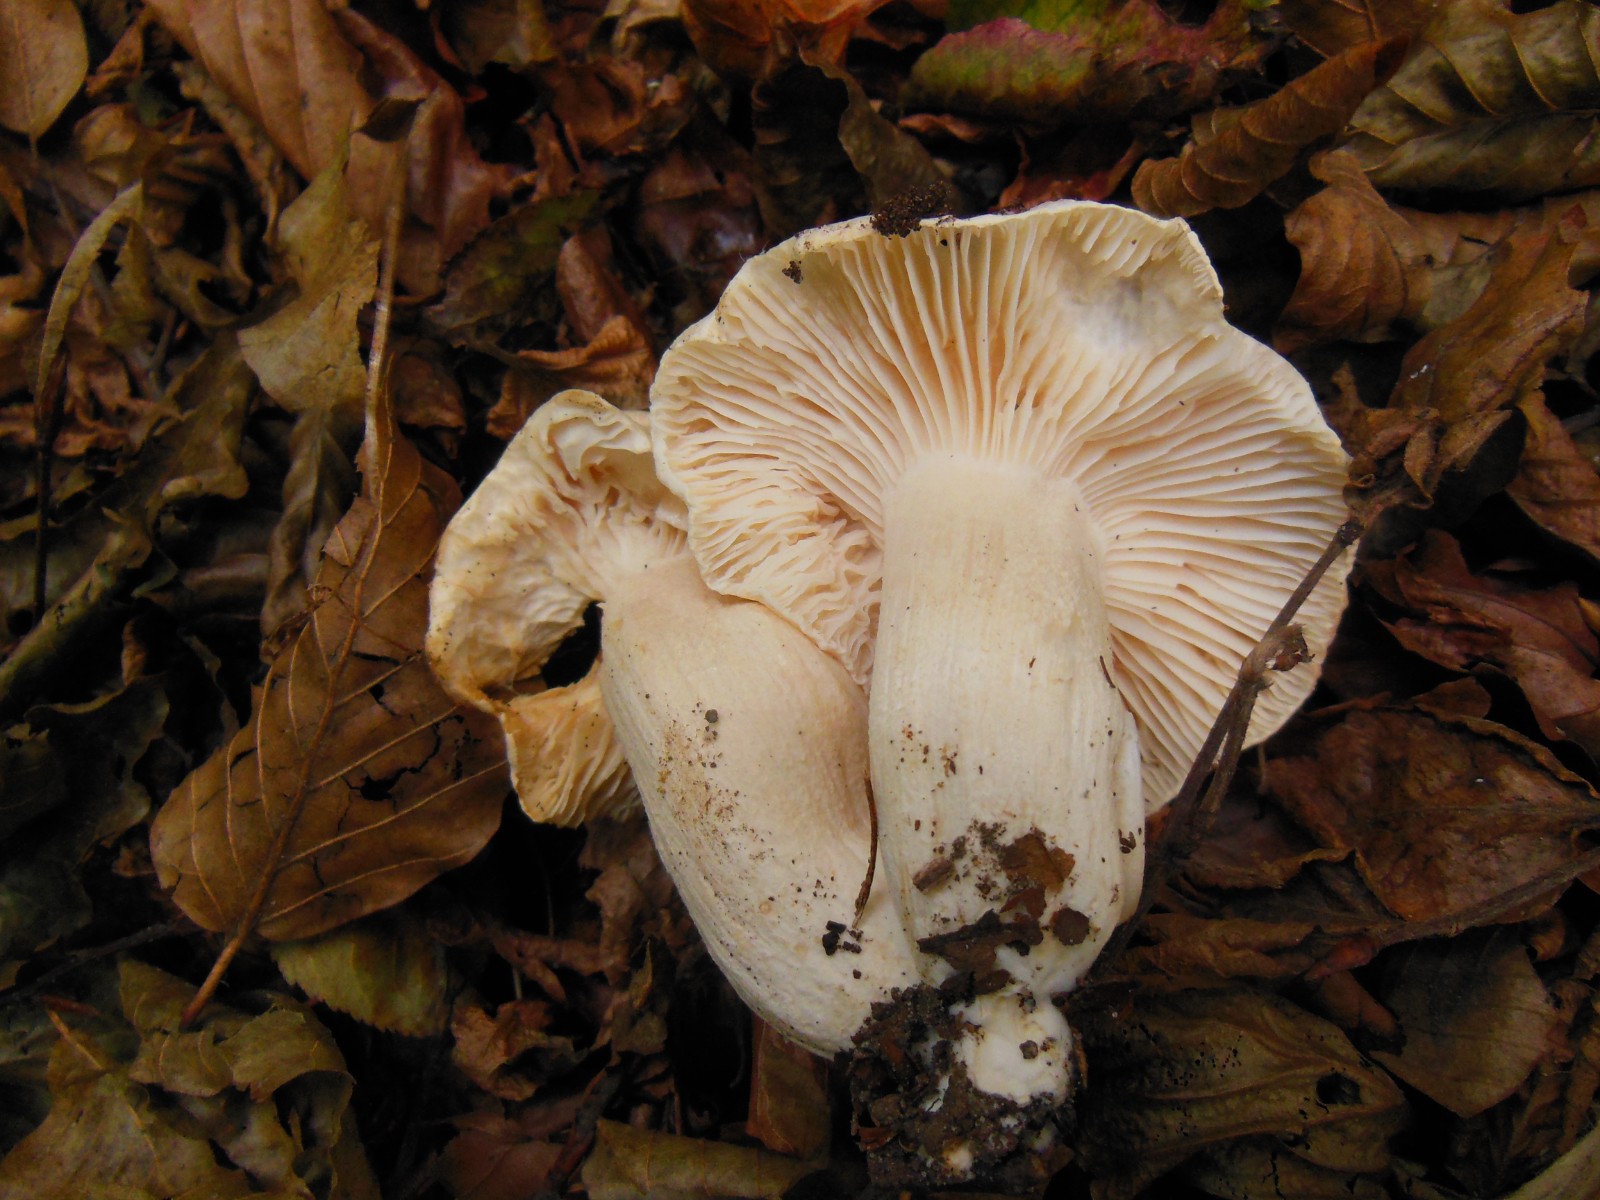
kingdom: Fungi
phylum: Basidiomycota
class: Agaricomycetes
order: Agaricales
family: Hygrophoraceae
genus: Hygrophorus
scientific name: Hygrophorus penarius
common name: spiselig sneglehat
